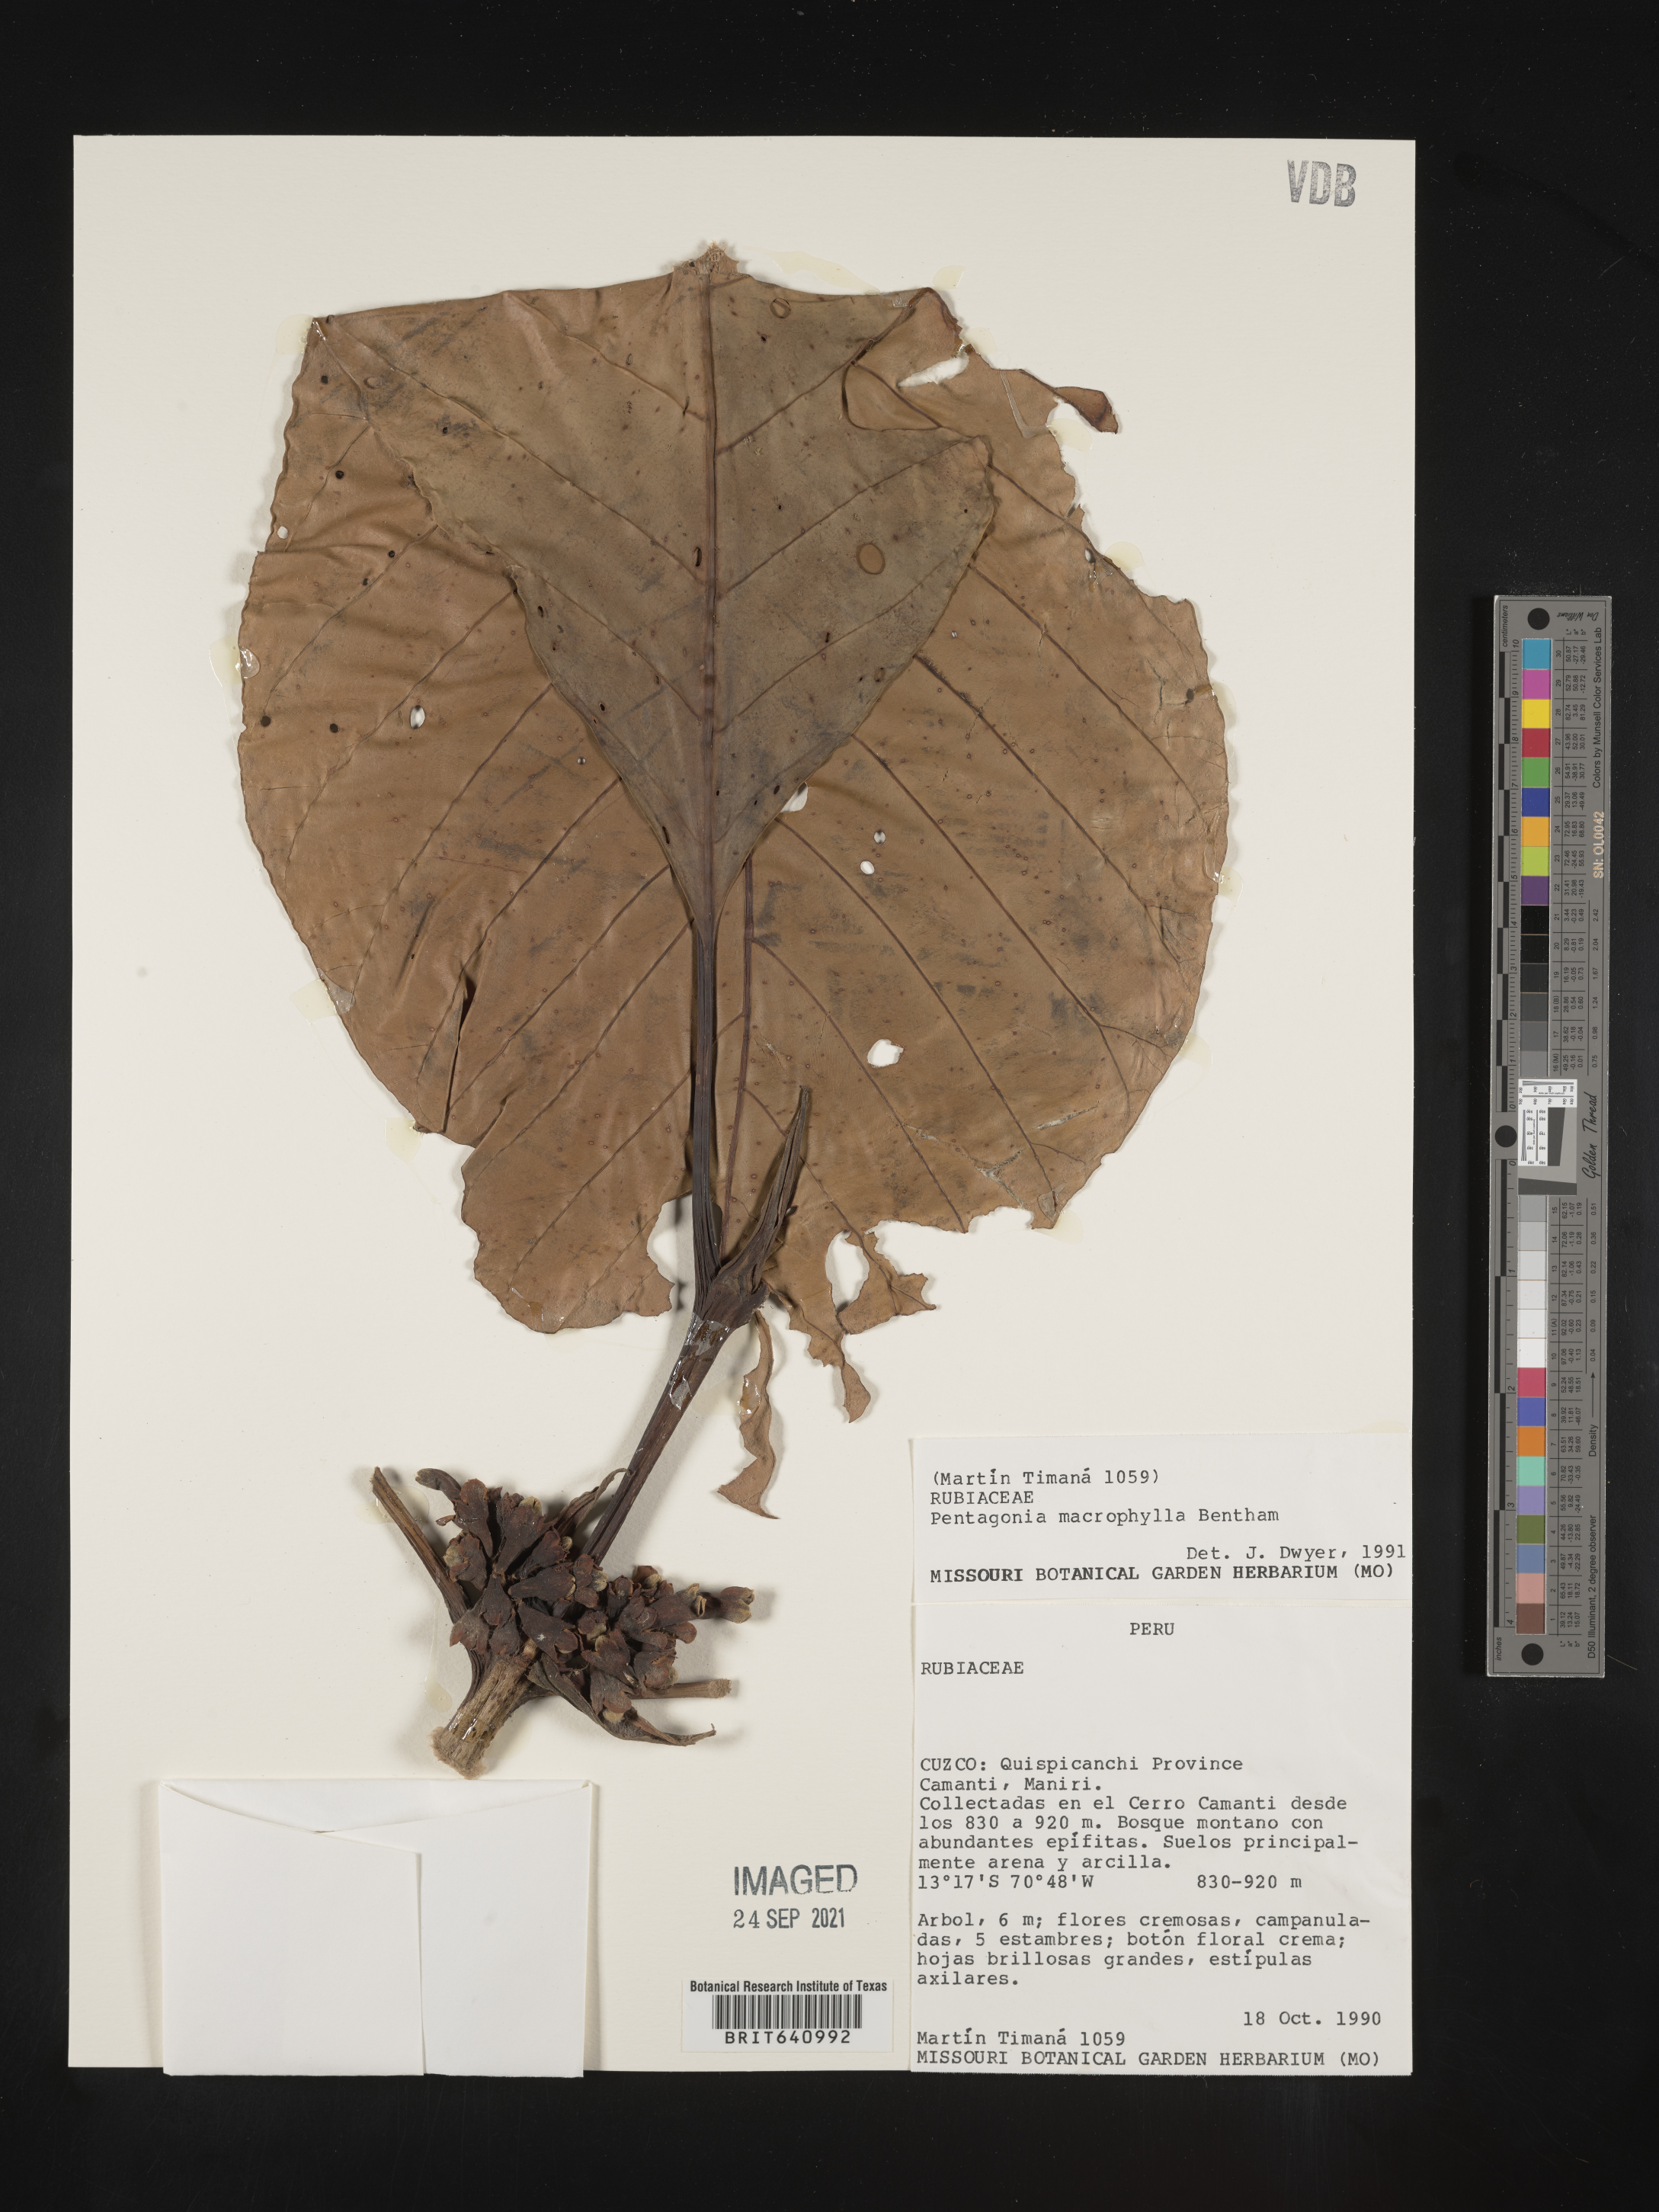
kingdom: Plantae
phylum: Tracheophyta
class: Magnoliopsida
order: Gentianales
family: Rubiaceae
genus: Pentagonia
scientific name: Pentagonia
